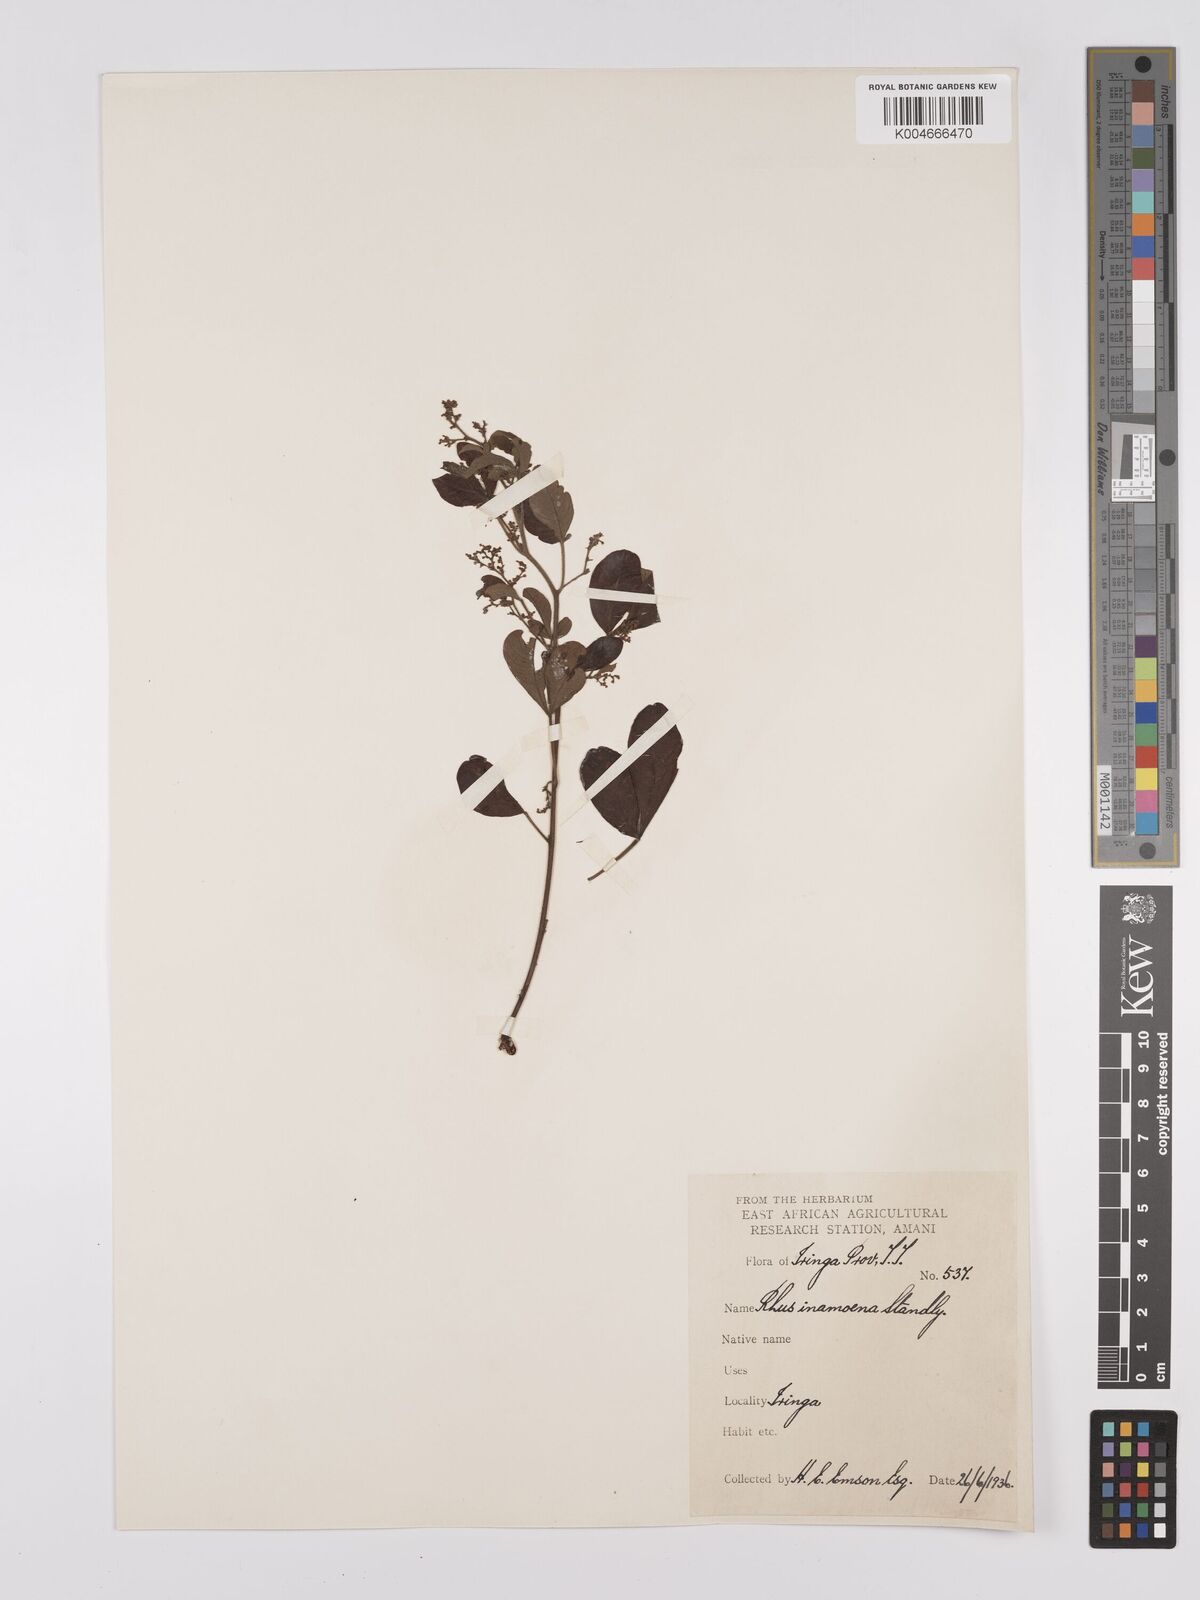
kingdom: Plantae
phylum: Tracheophyta
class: Magnoliopsida
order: Sapindales
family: Anacardiaceae
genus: Searsia
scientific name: Searsia quartiniana
